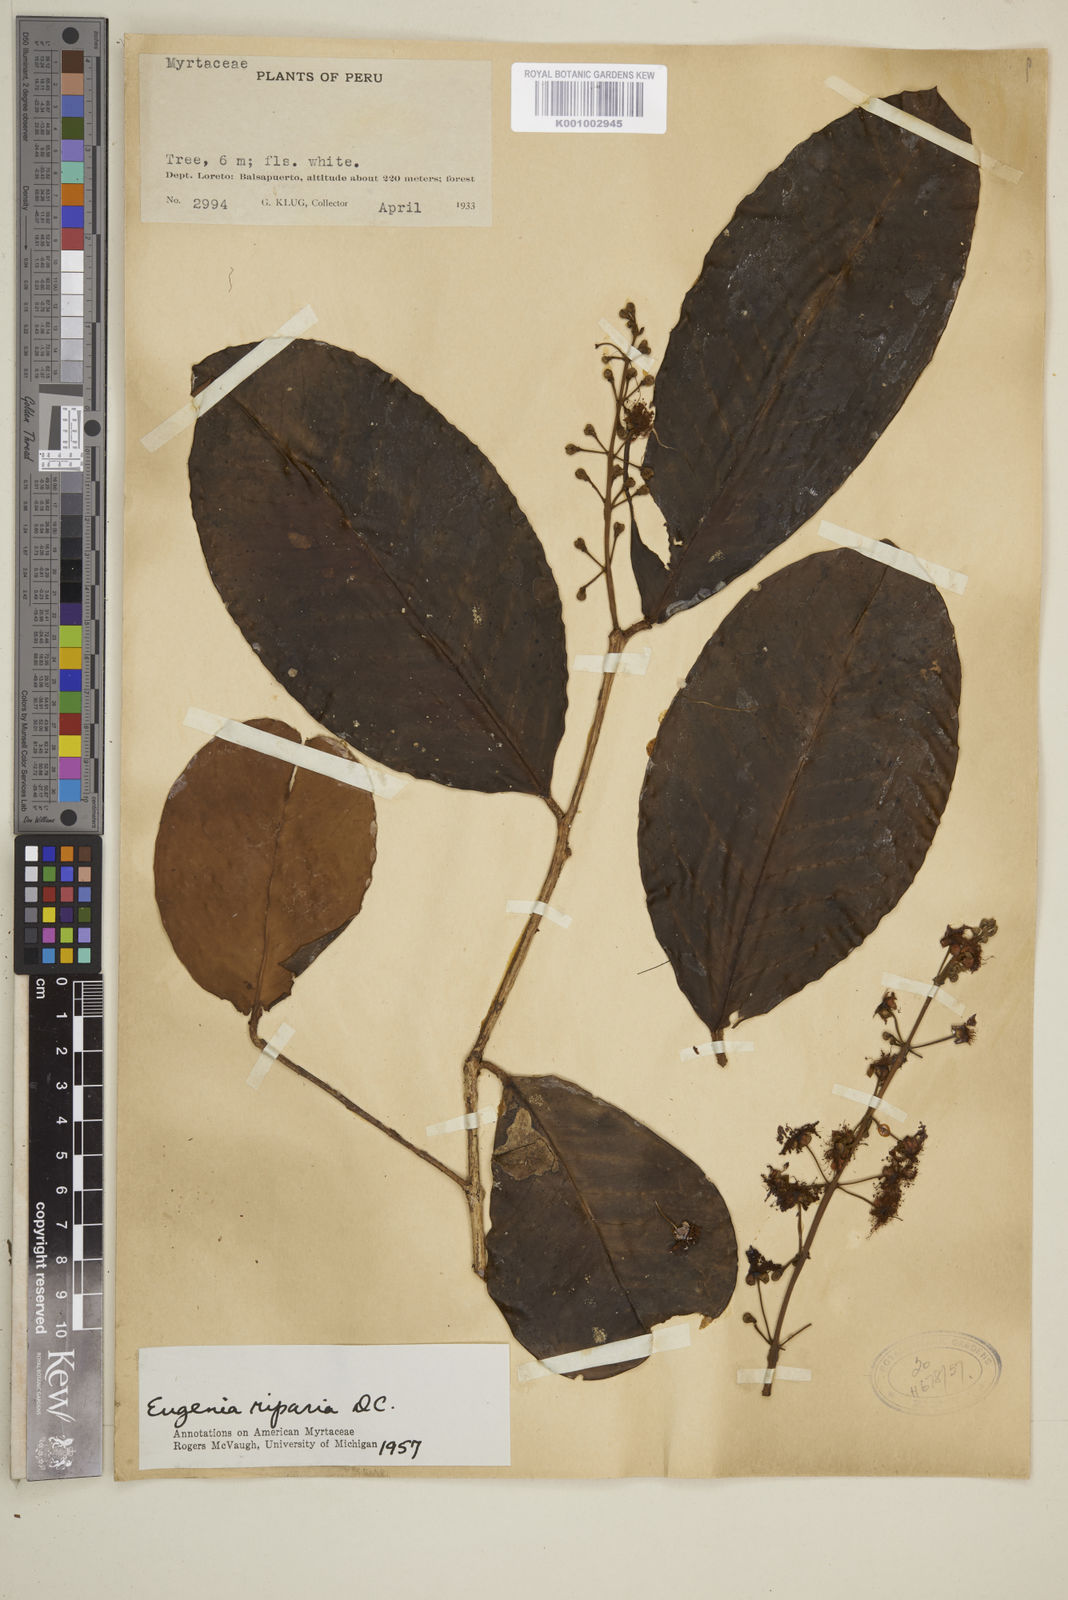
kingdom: Plantae
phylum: Tracheophyta
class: Magnoliopsida
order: Myrtales
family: Myrtaceae
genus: Eugenia
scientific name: Eugenia muricata
